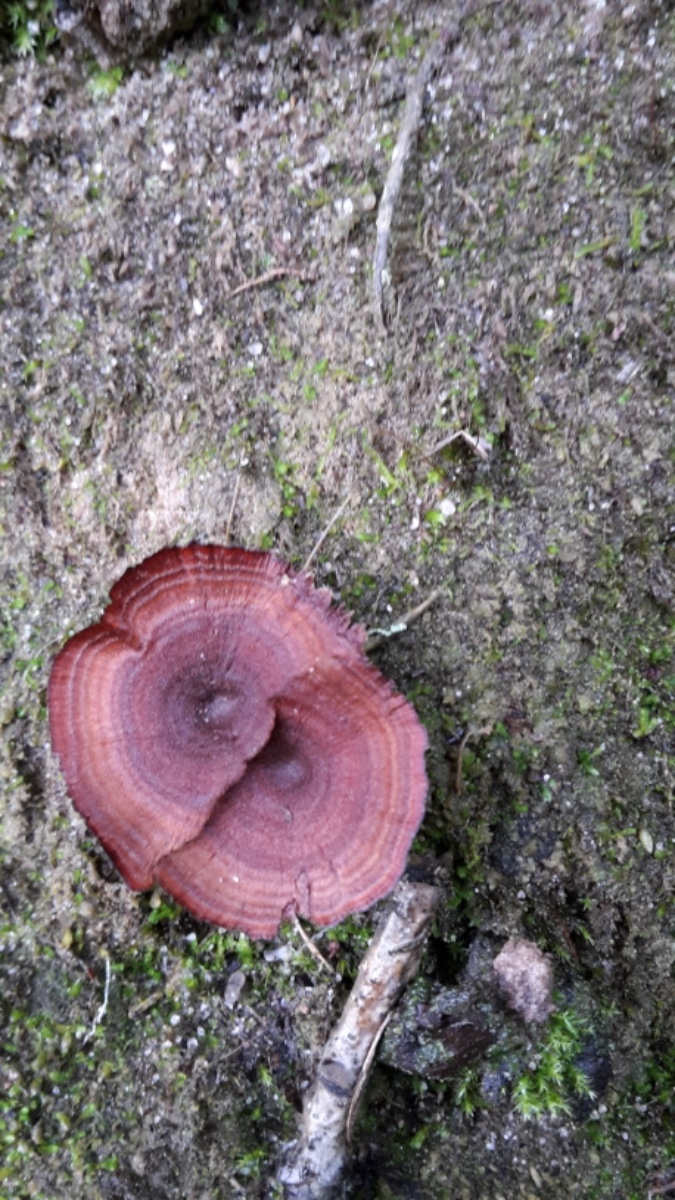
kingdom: Fungi
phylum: Basidiomycota
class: Agaricomycetes
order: Hymenochaetales
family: Hymenochaetaceae
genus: Coltricia
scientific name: Coltricia perennis
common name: almindelig sandporesvamp
